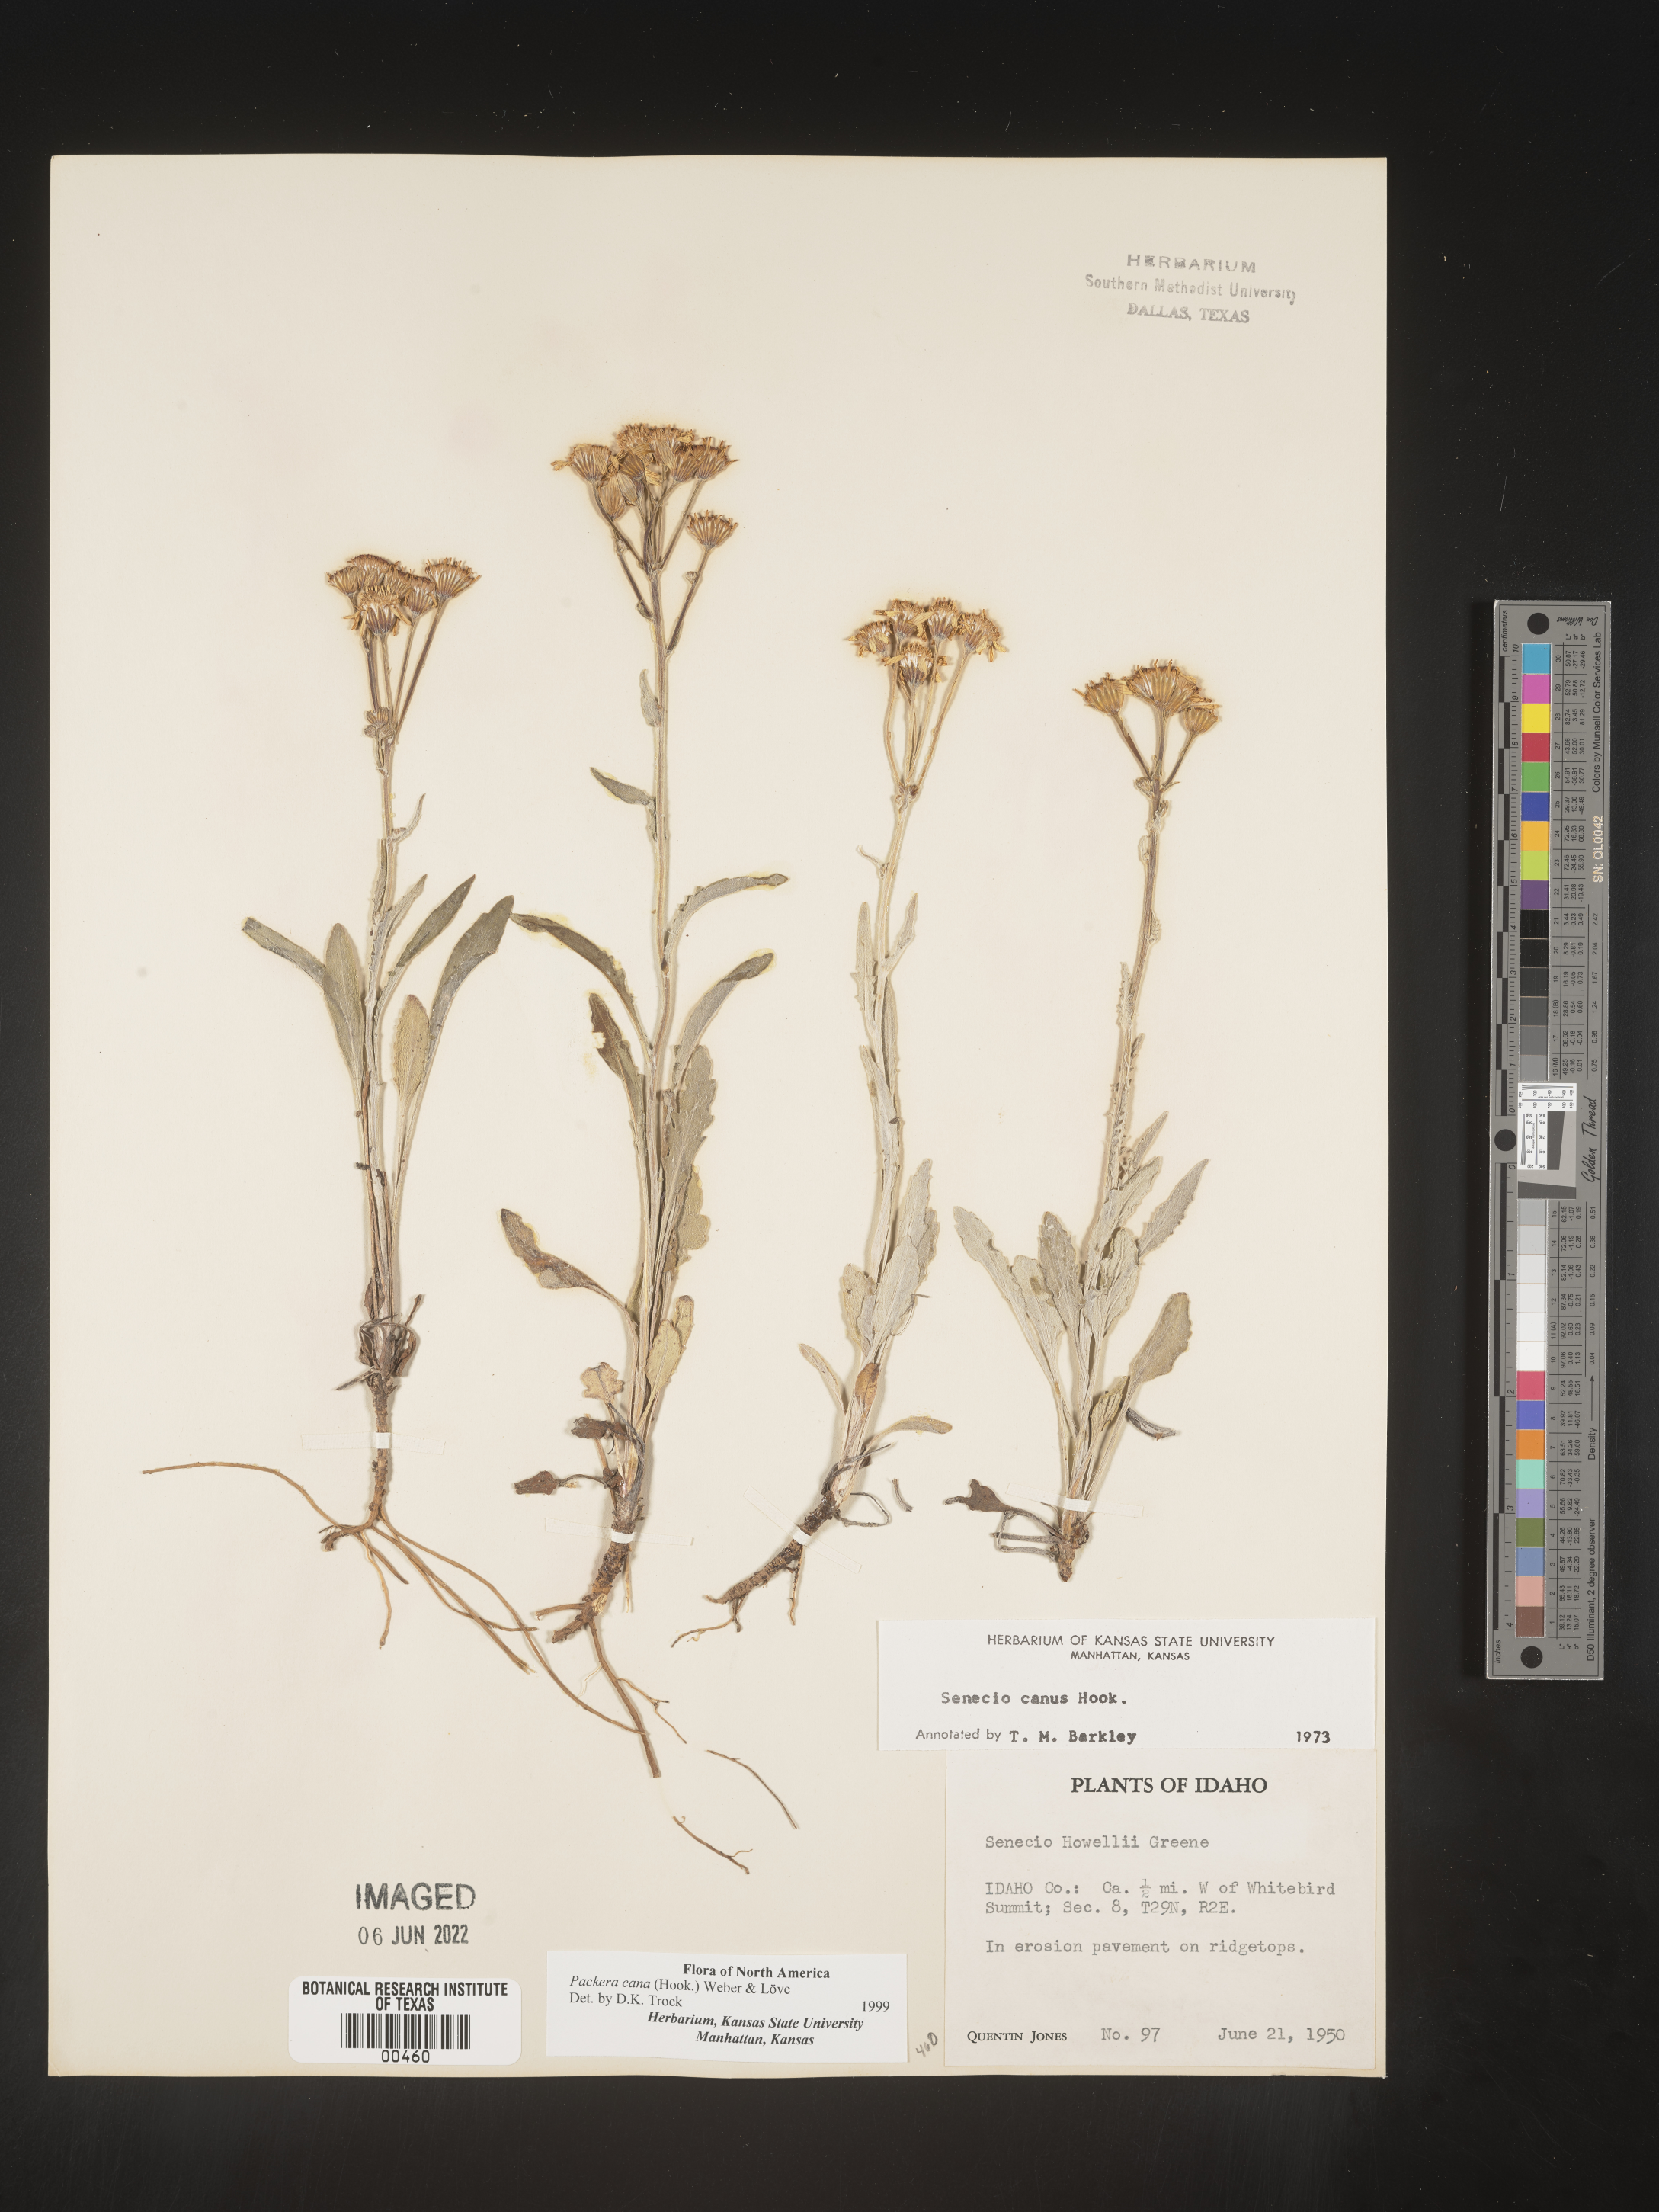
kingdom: Plantae
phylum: Tracheophyta
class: Magnoliopsida
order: Asterales
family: Asteraceae
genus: Packera
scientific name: Packera cana
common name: Woolly groundsel
